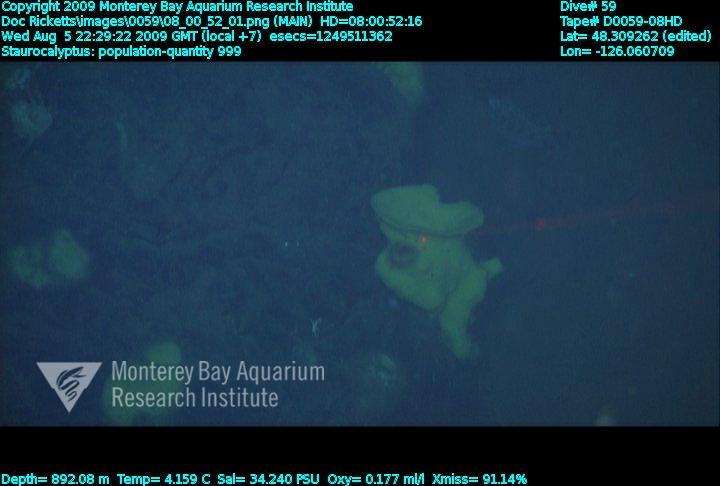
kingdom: Animalia
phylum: Porifera
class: Hexactinellida
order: Lyssacinosida
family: Rossellidae
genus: Staurocalyptus
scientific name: Staurocalyptus
